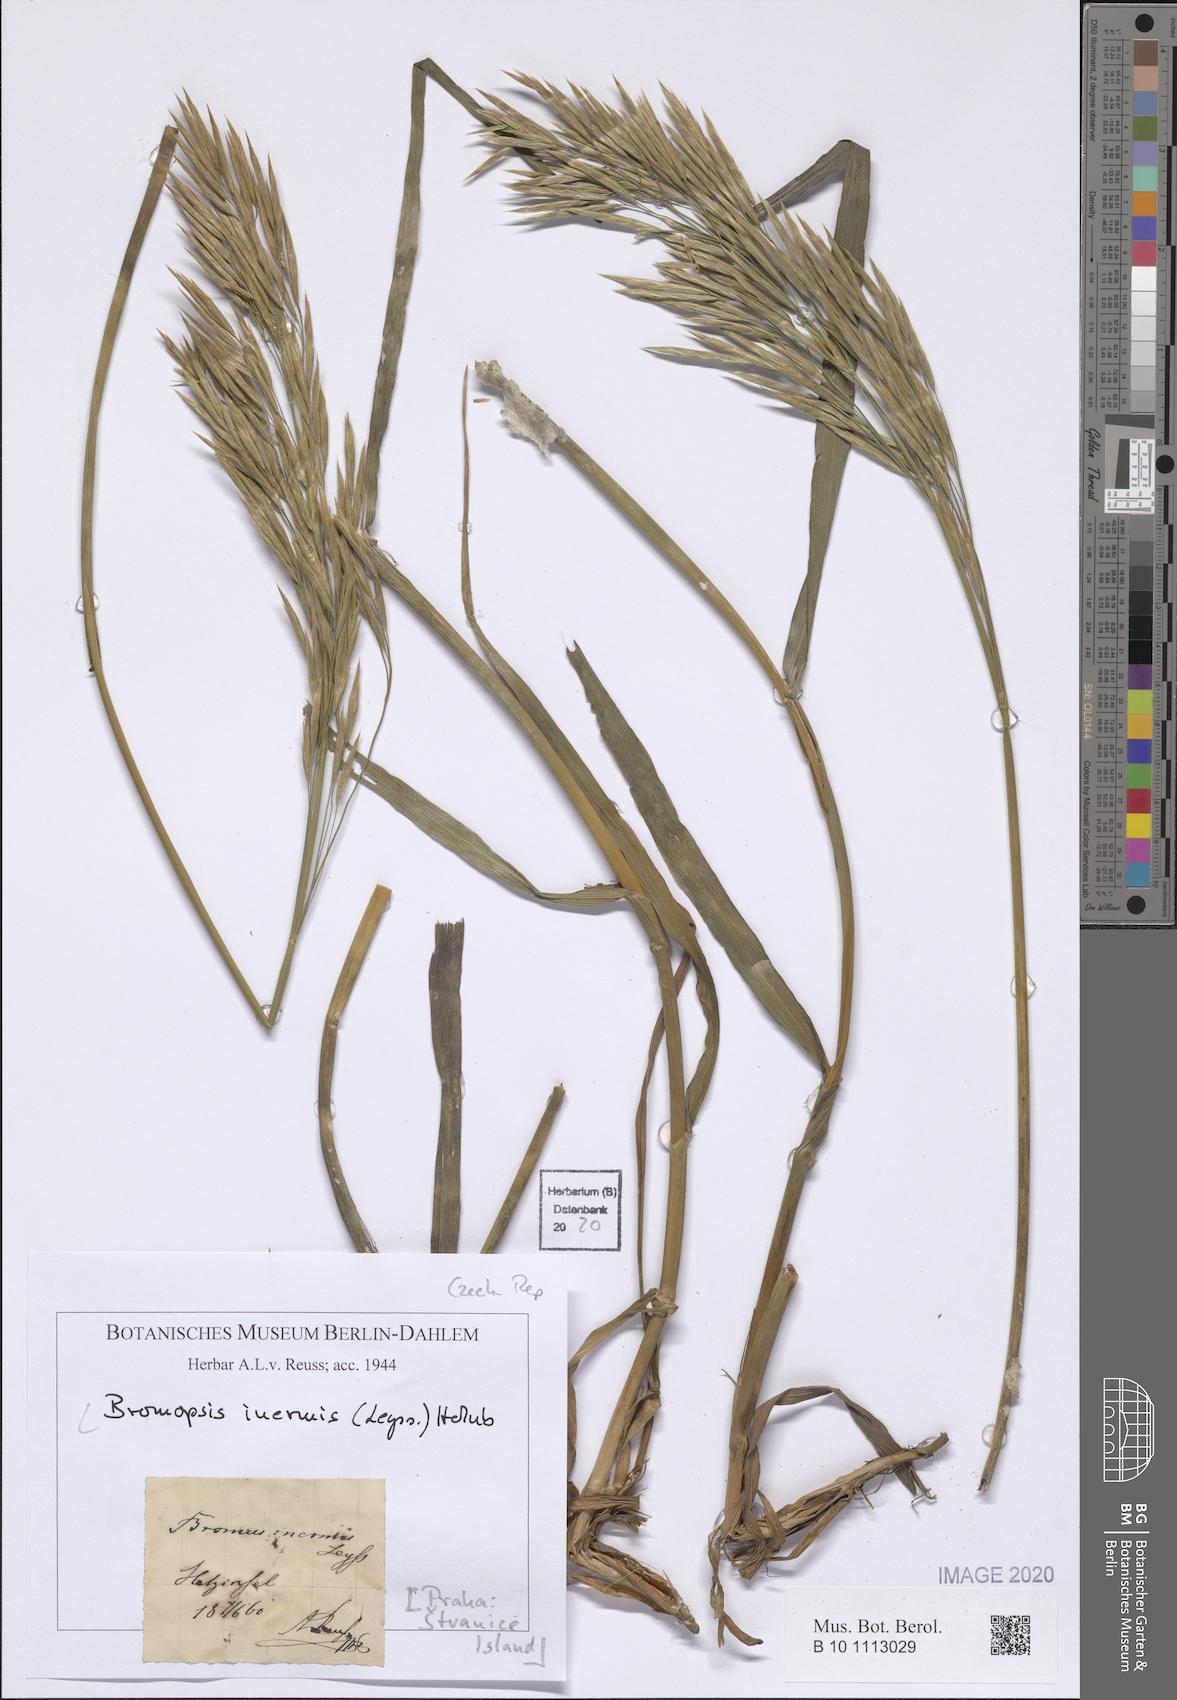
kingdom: Plantae
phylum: Tracheophyta
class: Liliopsida
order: Poales
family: Poaceae
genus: Bromus
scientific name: Bromus inermis
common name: Smooth brome
